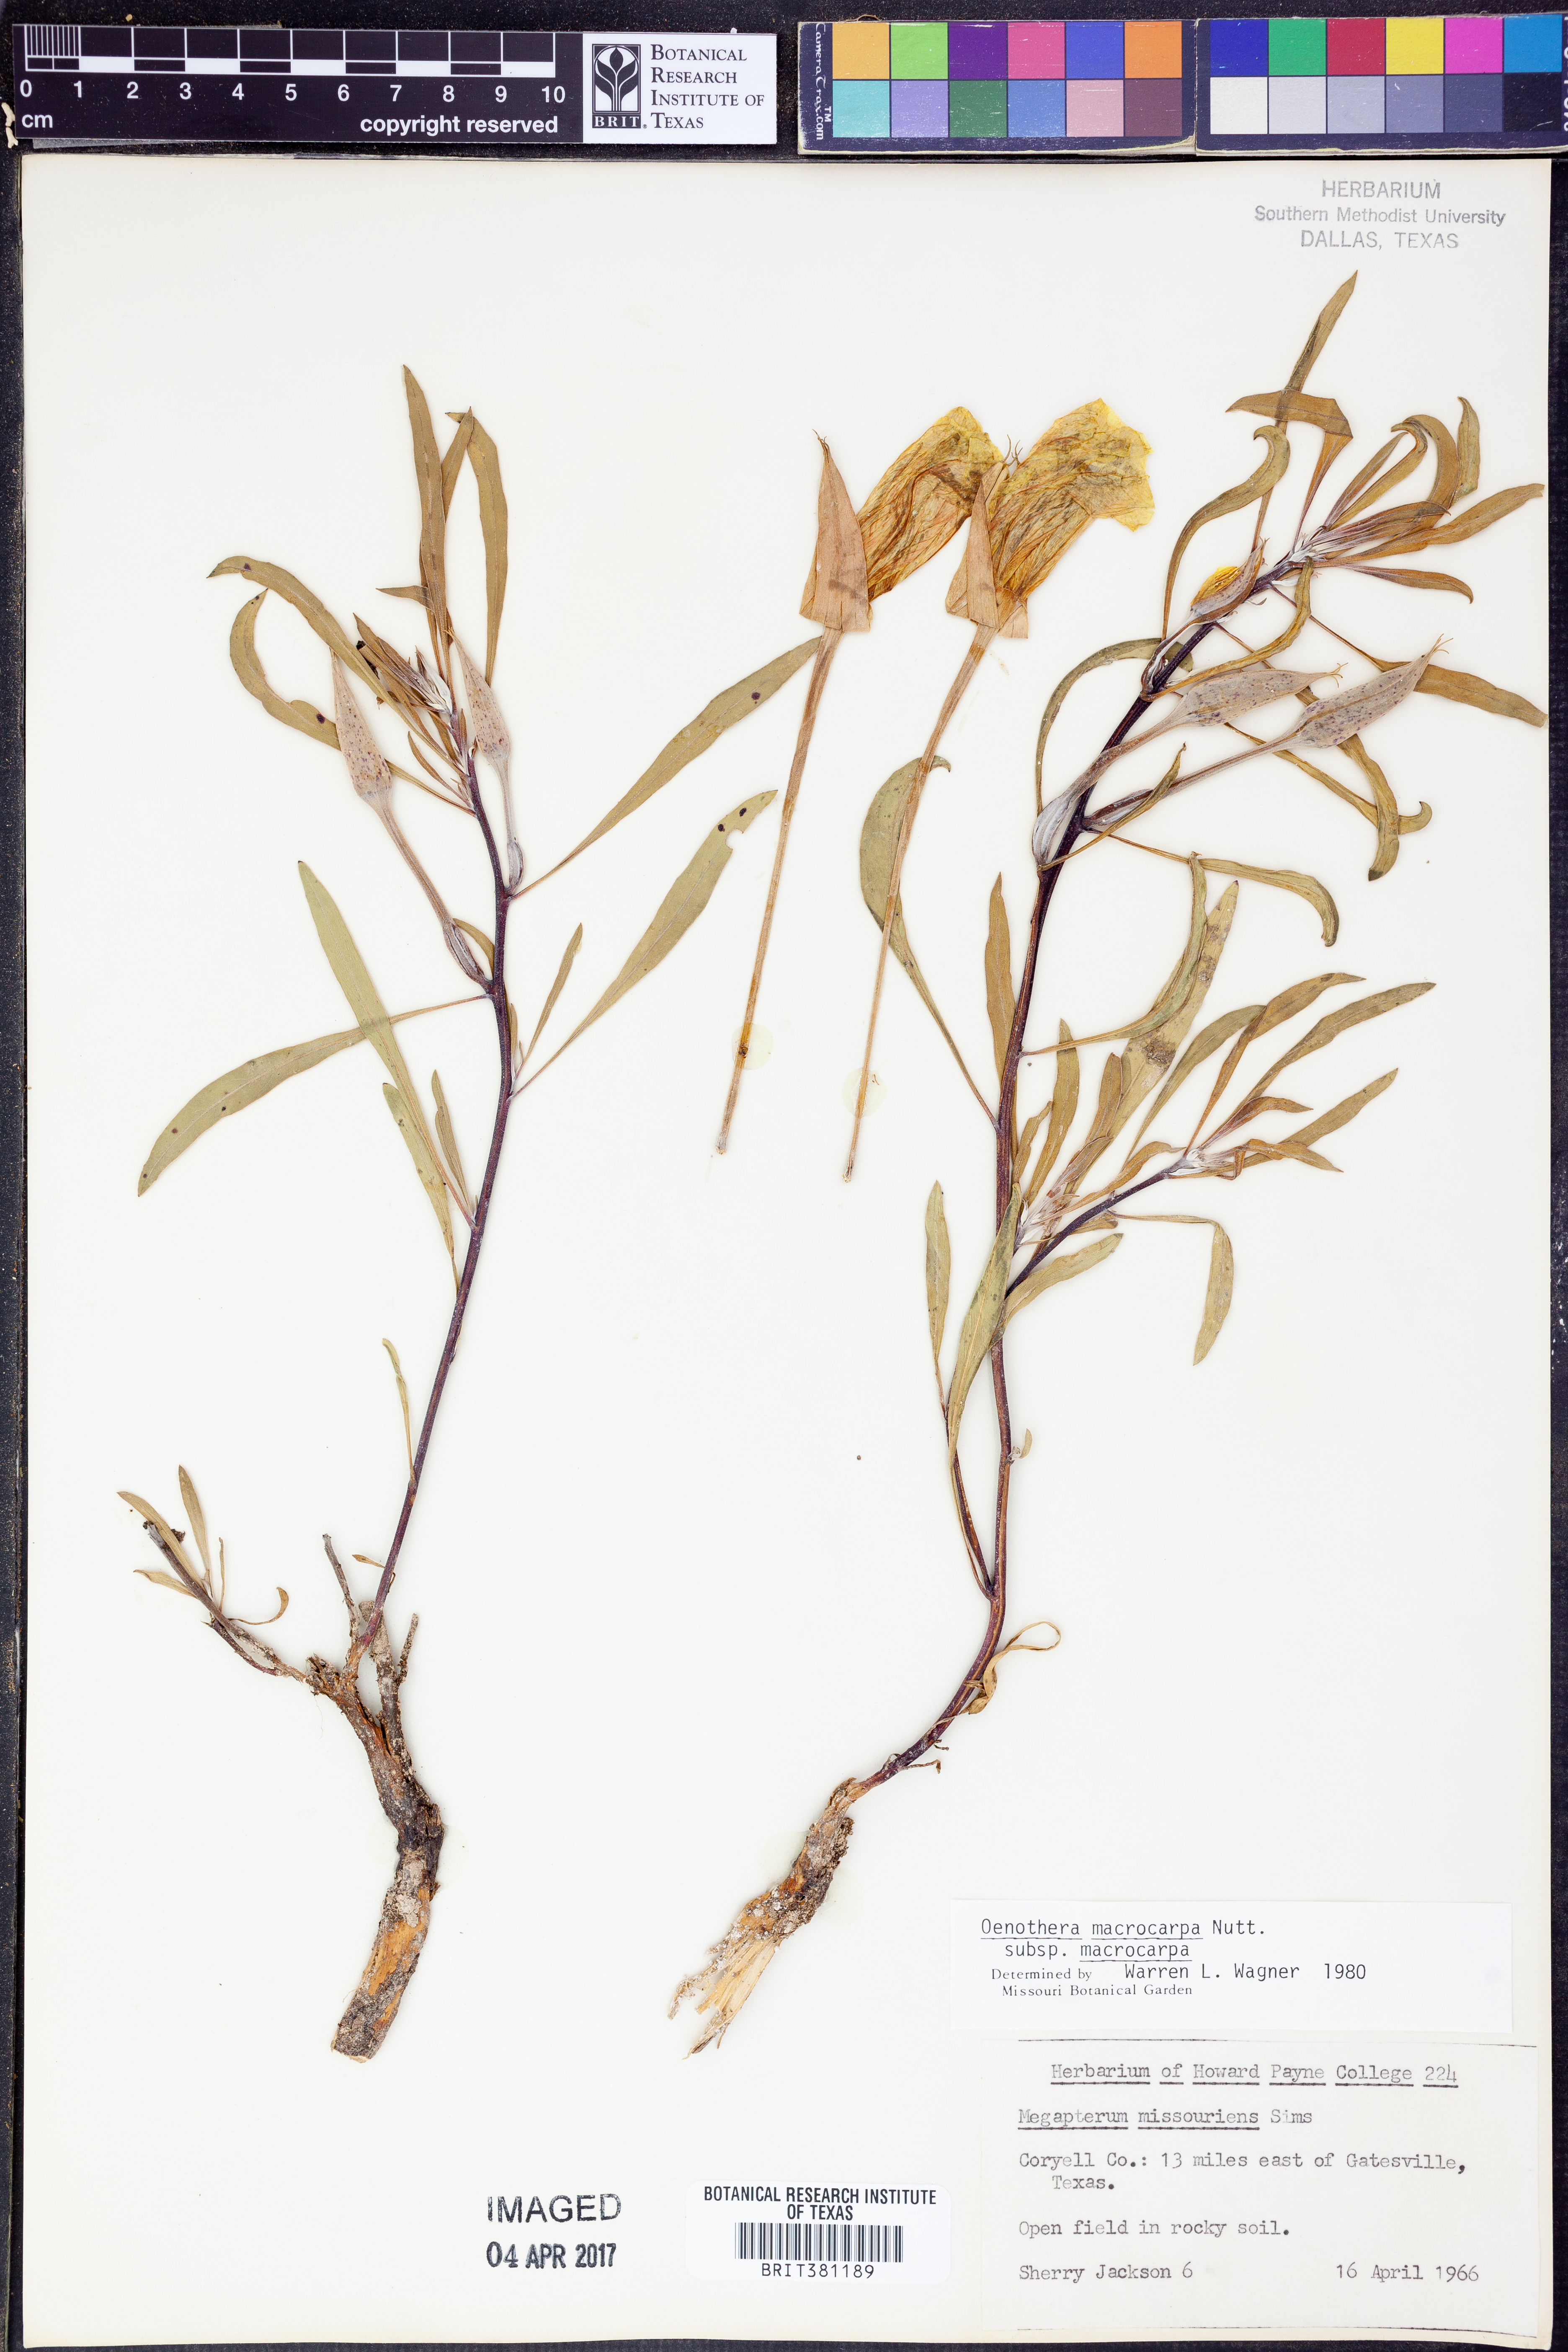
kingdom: Plantae
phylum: Tracheophyta
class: Magnoliopsida
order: Myrtales
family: Onagraceae
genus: Oenothera
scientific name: Oenothera macrocarpa
